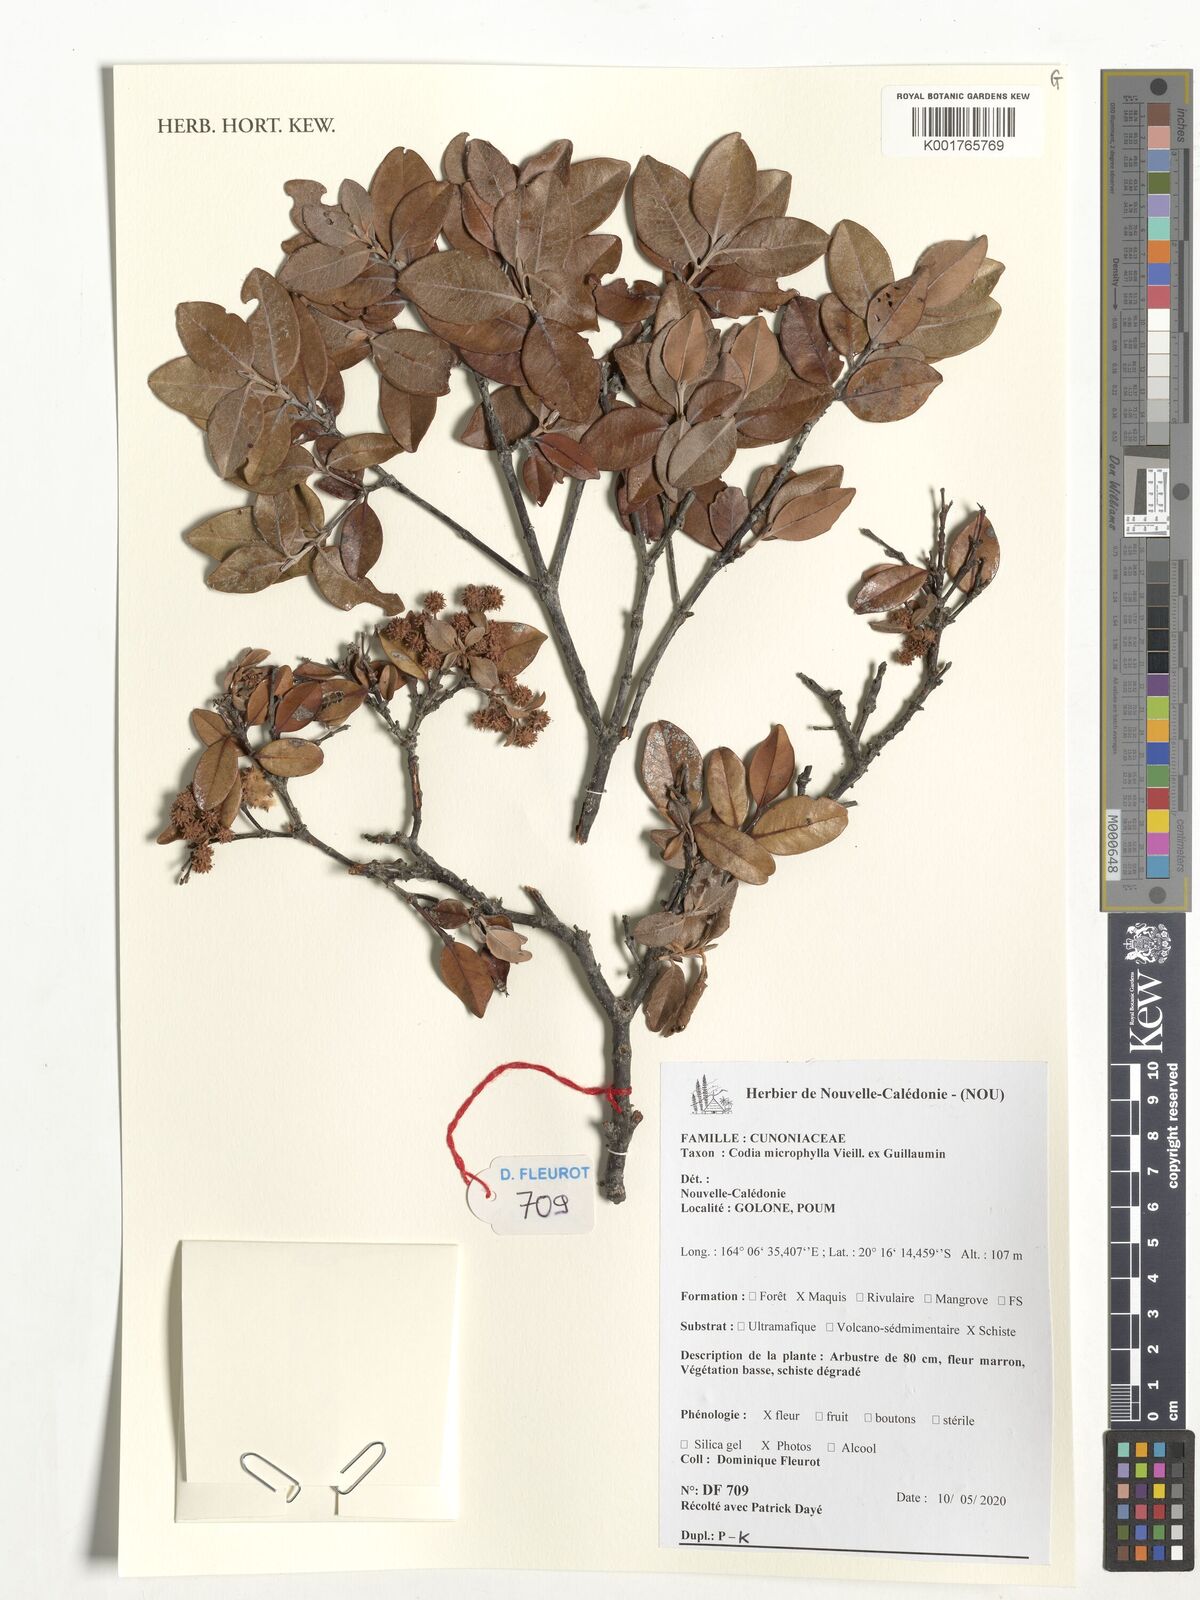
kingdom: Plantae
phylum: Tracheophyta
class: Magnoliopsida
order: Oxalidales
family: Cunoniaceae
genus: Codia
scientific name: Codia microphylla
